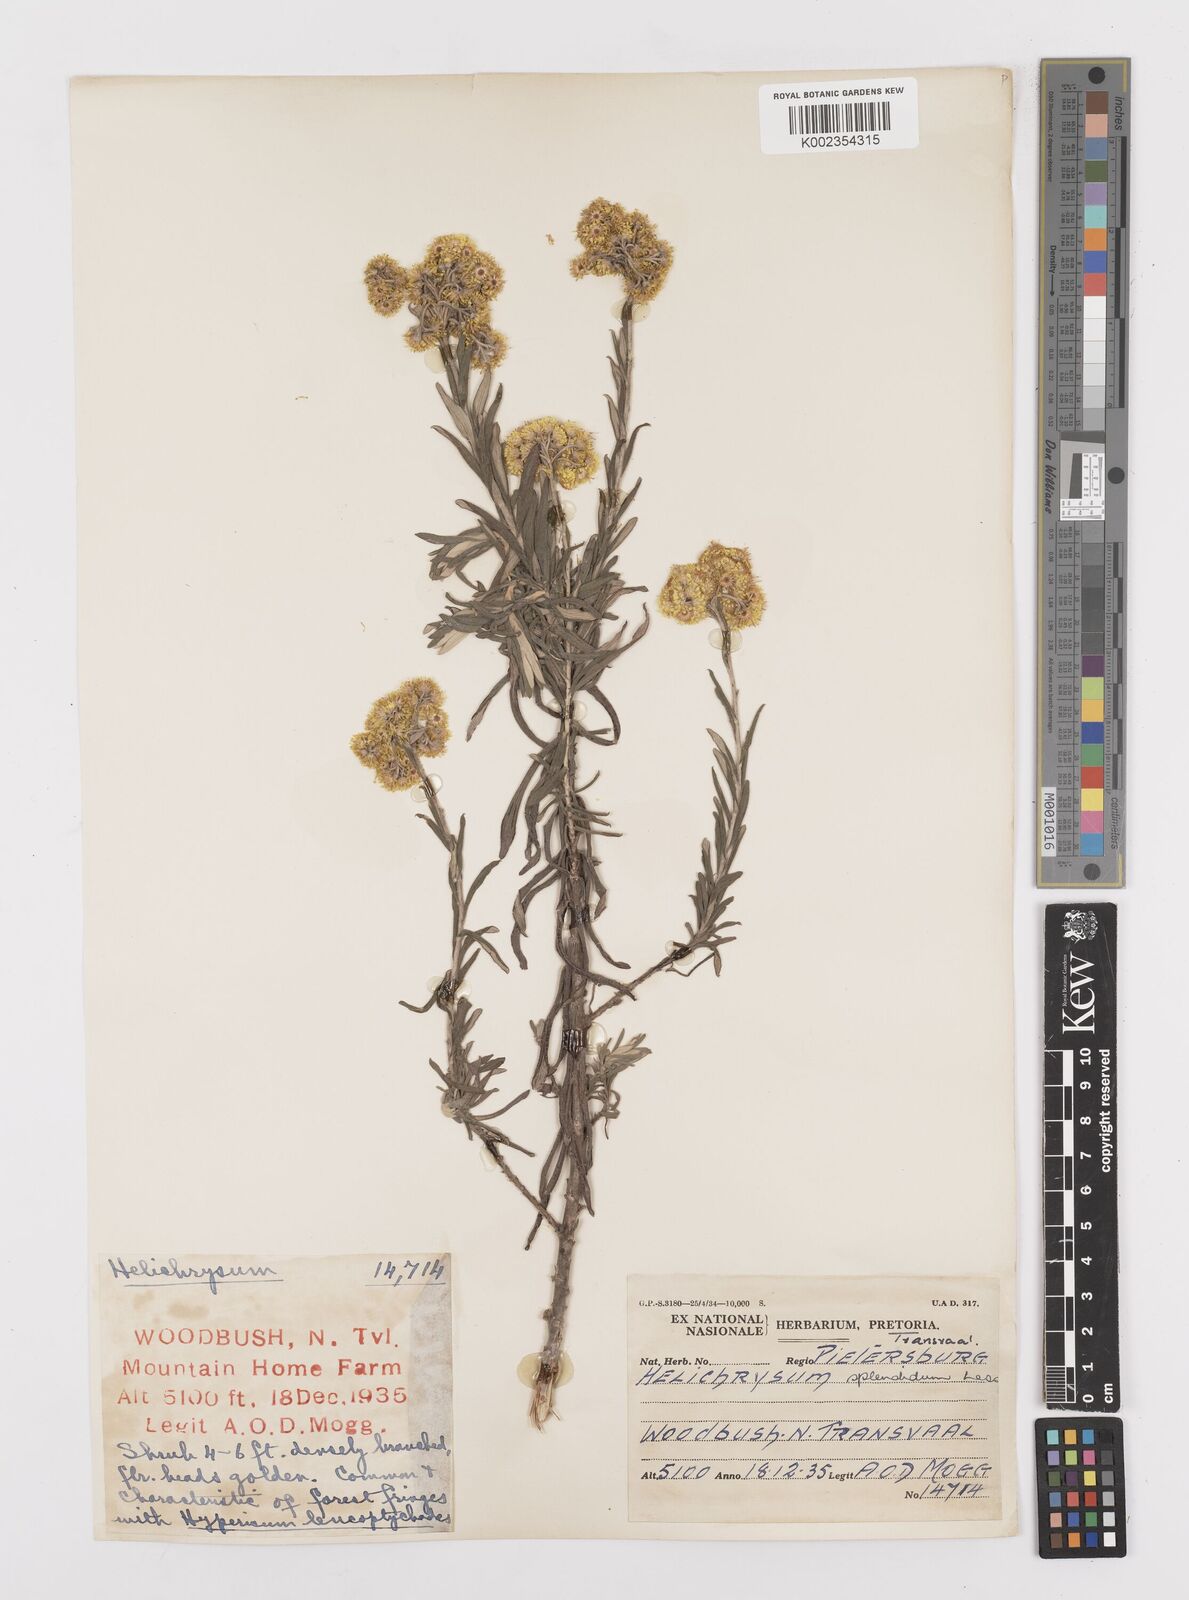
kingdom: Plantae
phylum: Tracheophyta
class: Magnoliopsida
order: Asterales
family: Asteraceae
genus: Helichrysum
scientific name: Helichrysum splendidum
